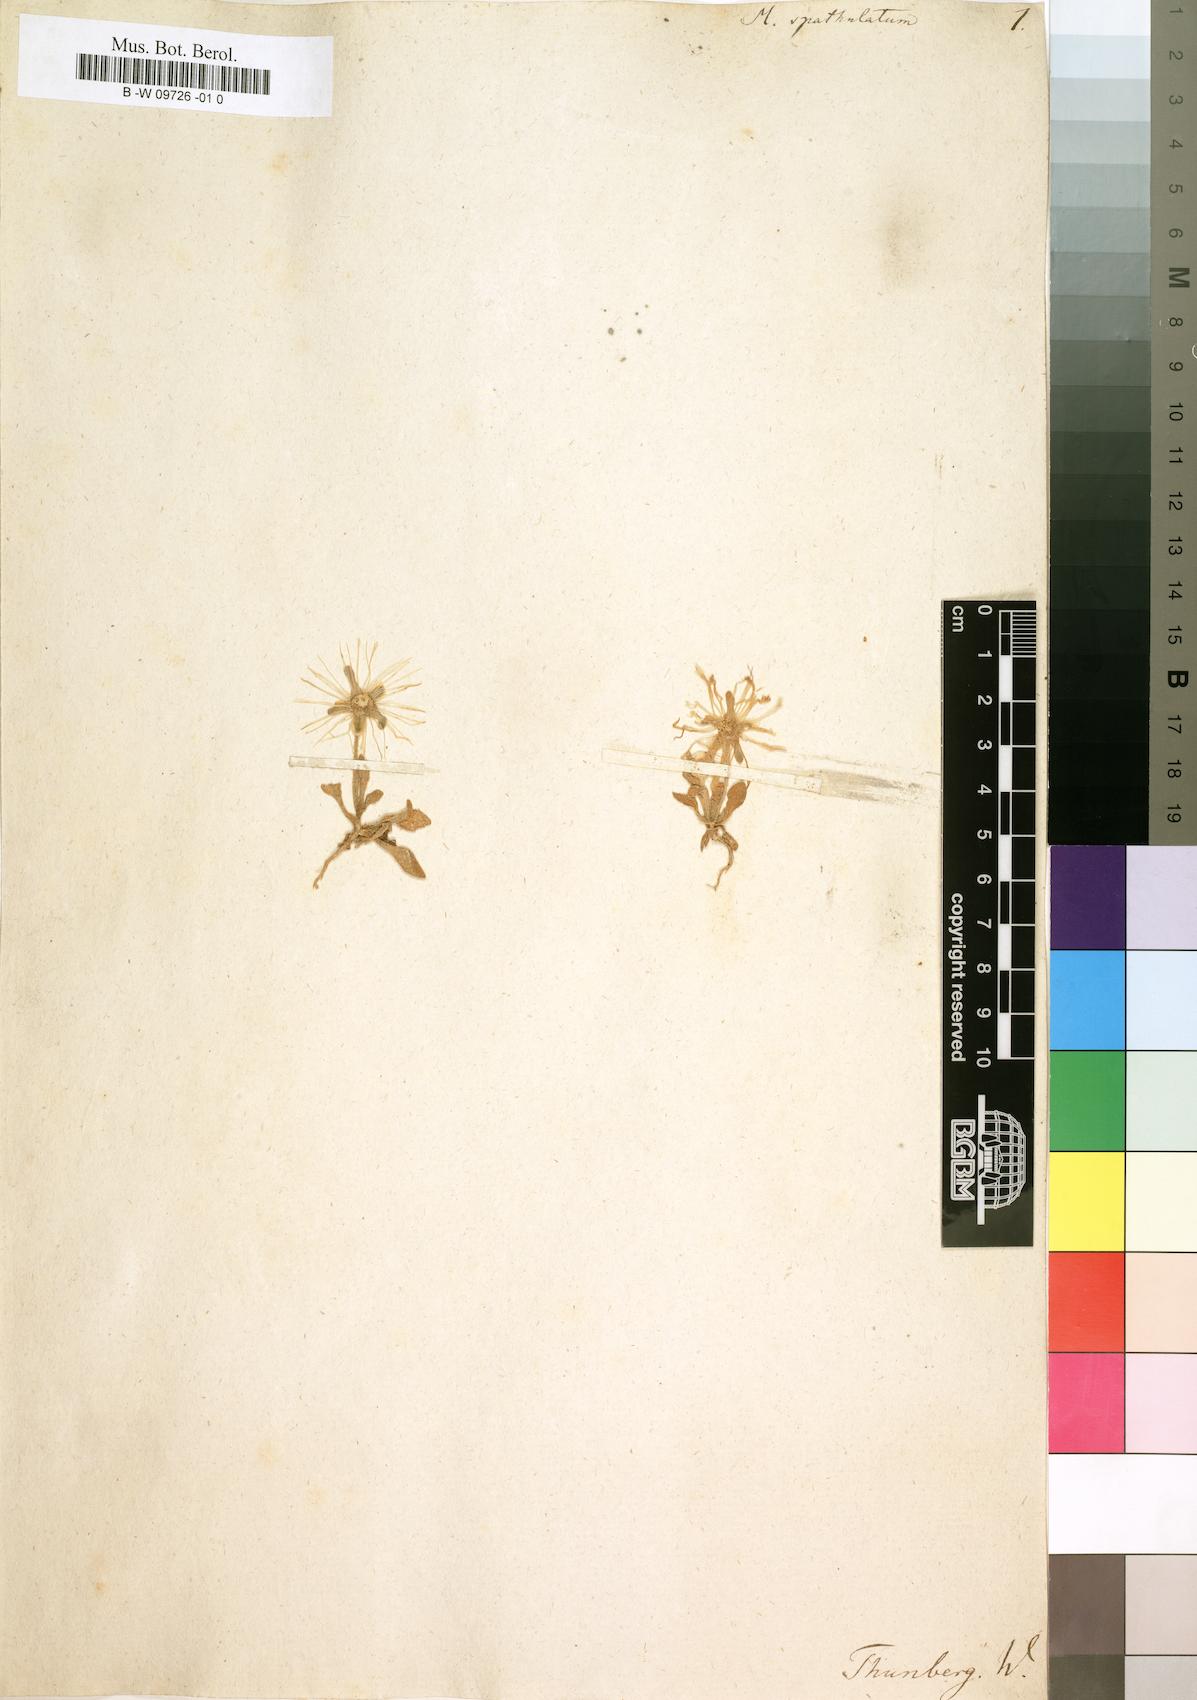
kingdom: Plantae
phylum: Tracheophyta
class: Magnoliopsida
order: Caryophyllales
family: Aizoaceae
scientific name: Aizoaceae
